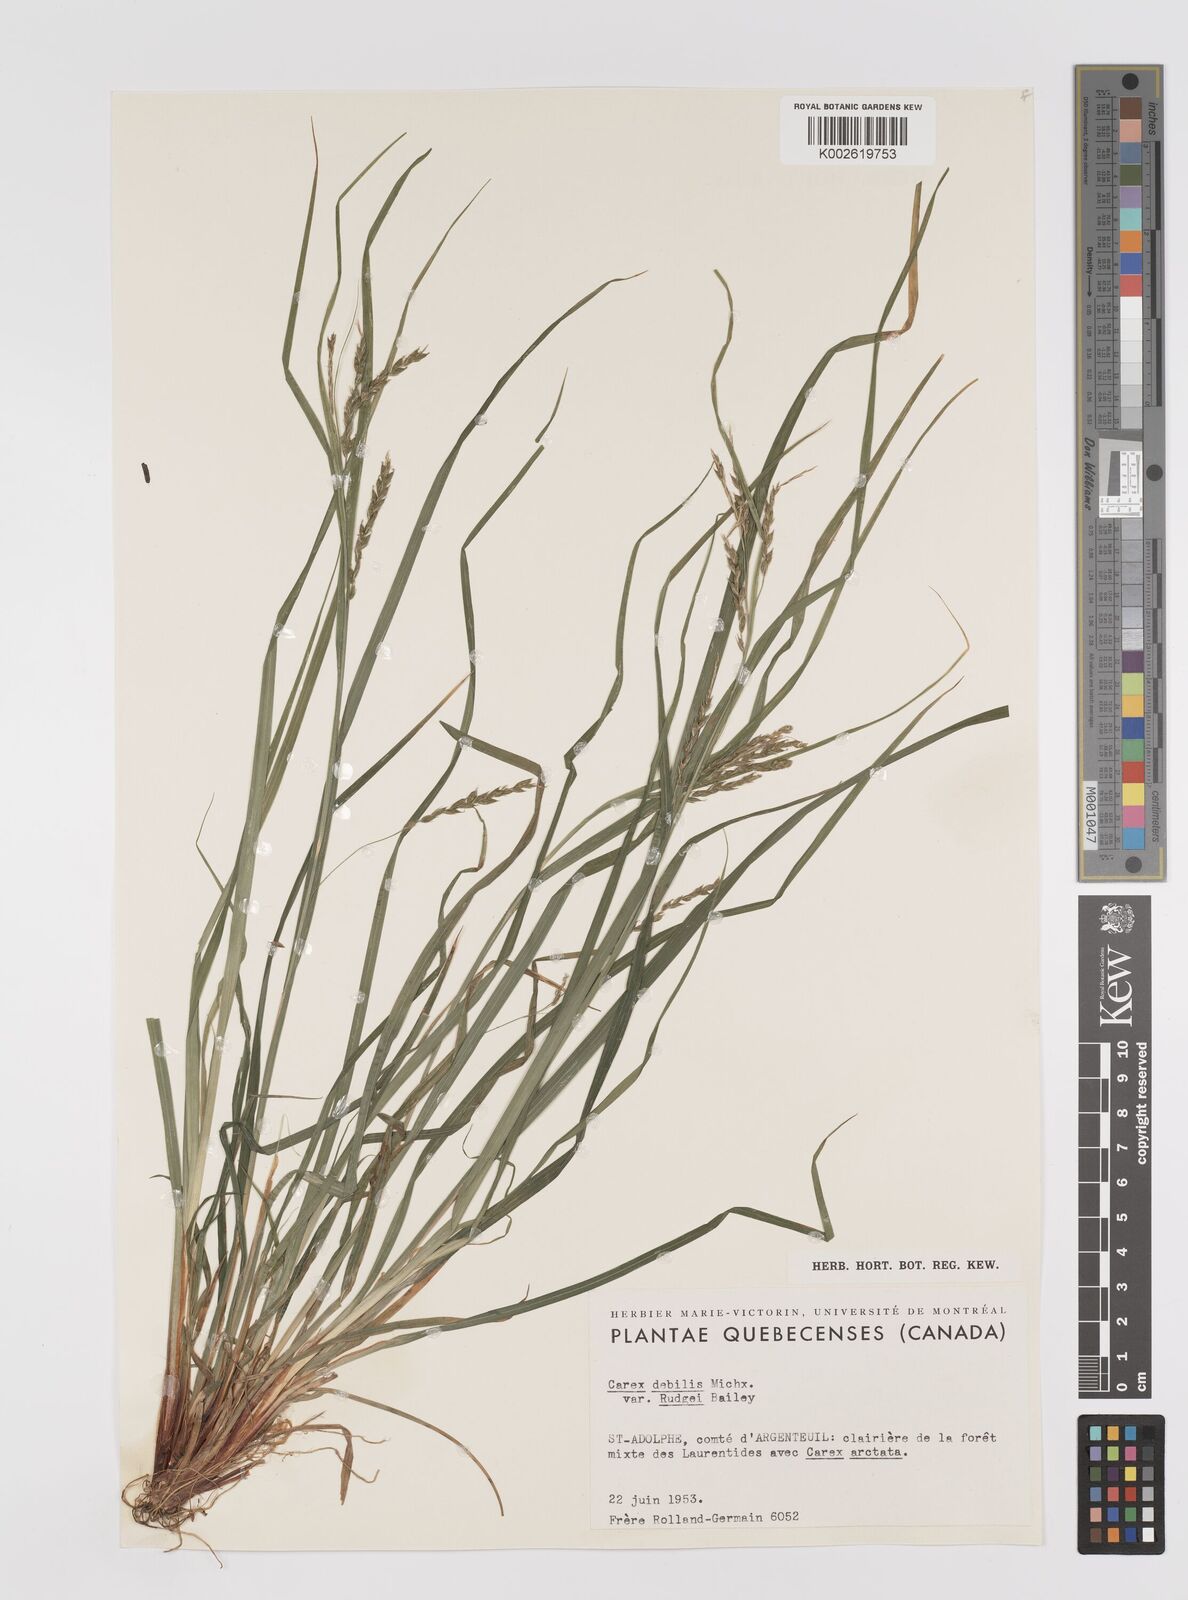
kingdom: Plantae
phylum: Tracheophyta
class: Liliopsida
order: Poales
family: Cyperaceae
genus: Carex
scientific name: Carex debilis
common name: White-edge sedge
